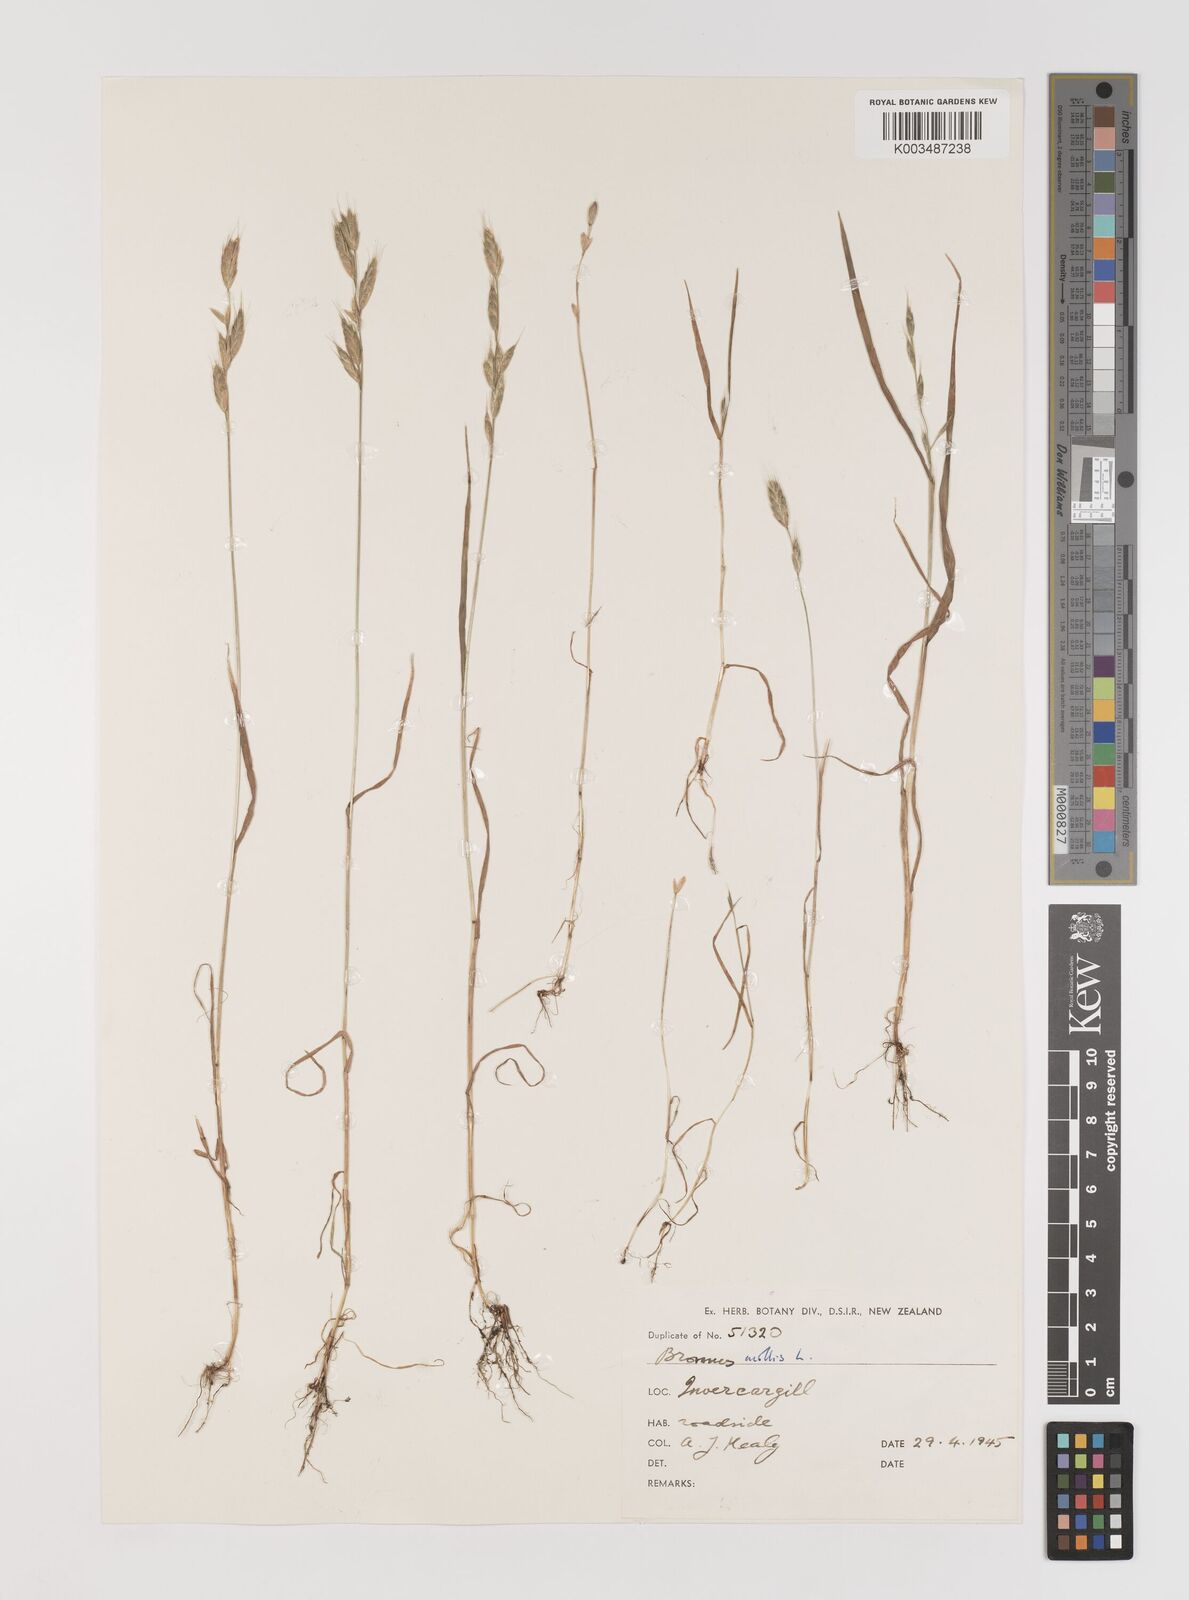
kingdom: Plantae
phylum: Tracheophyta
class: Liliopsida
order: Poales
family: Poaceae
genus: Bromus
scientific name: Bromus hordeaceus
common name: Soft brome
